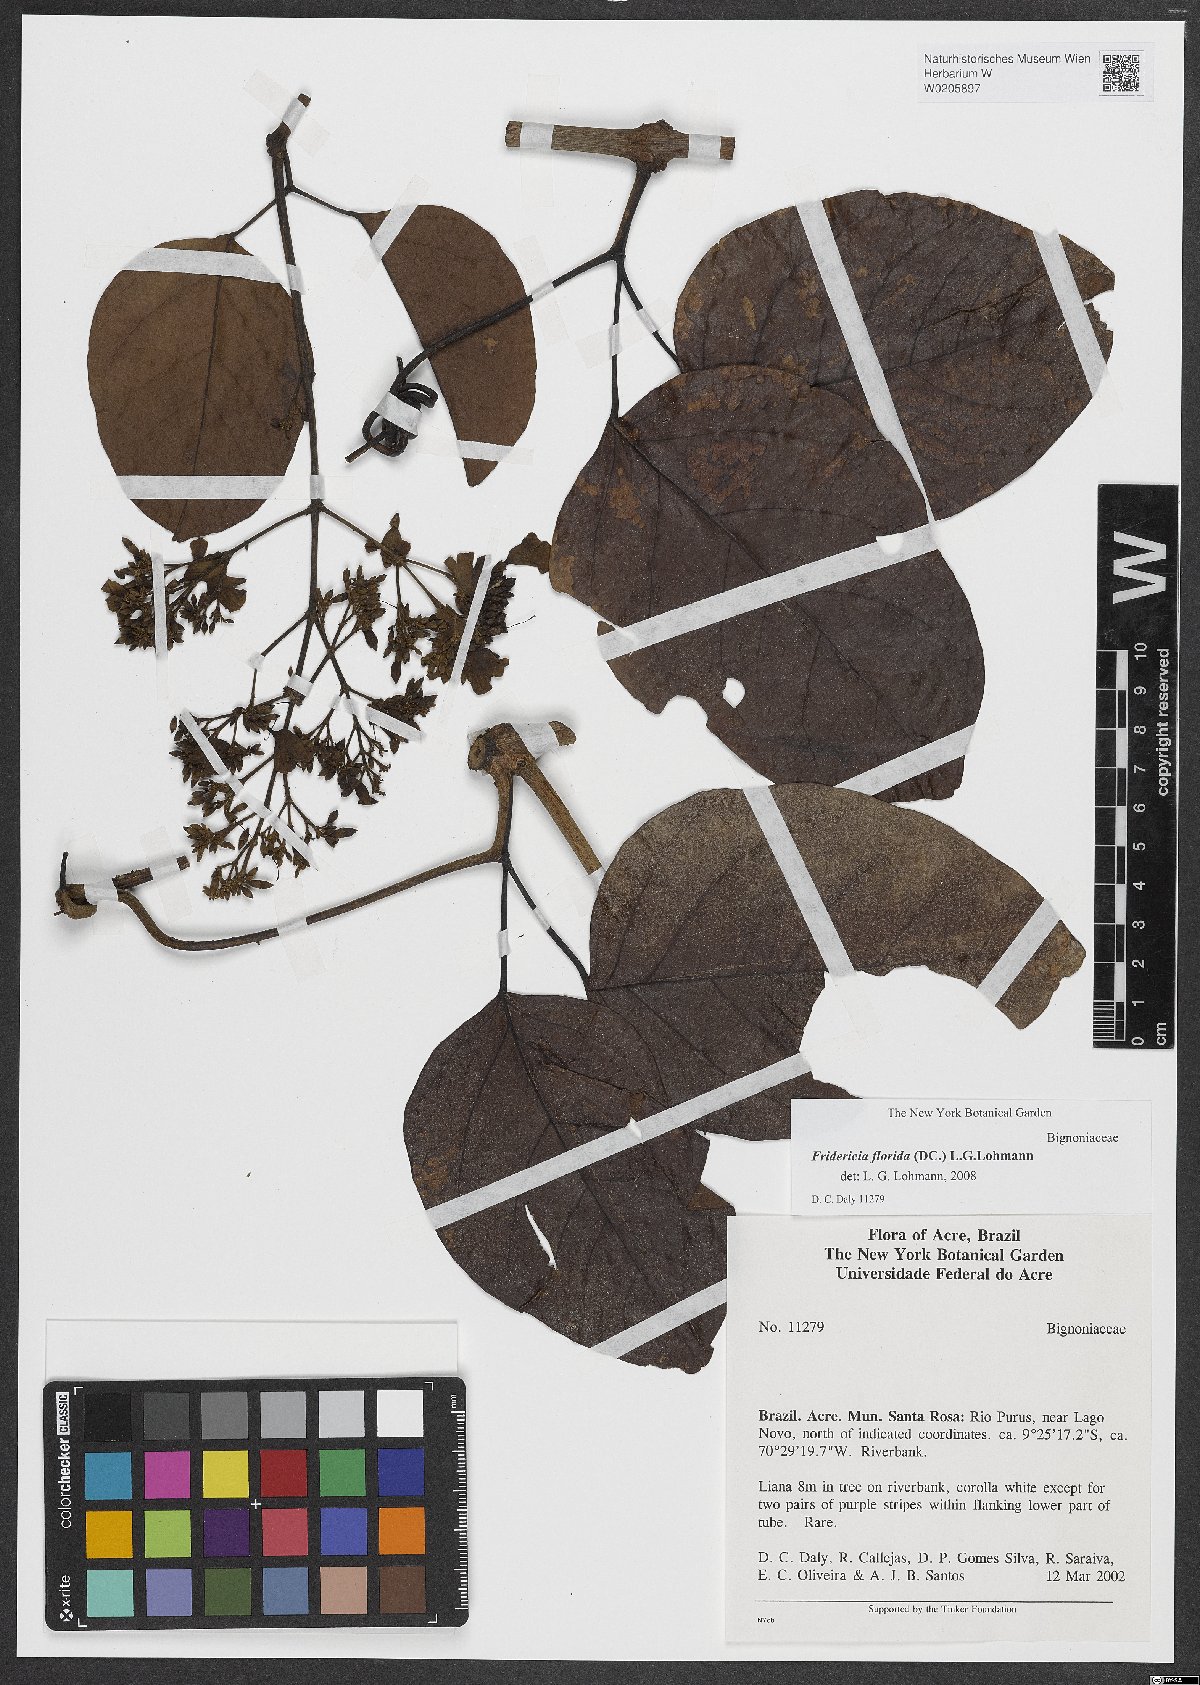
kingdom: Plantae
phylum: Tracheophyta
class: Magnoliopsida
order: Lamiales
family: Bignoniaceae
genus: Fridericia
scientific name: Fridericia florida
